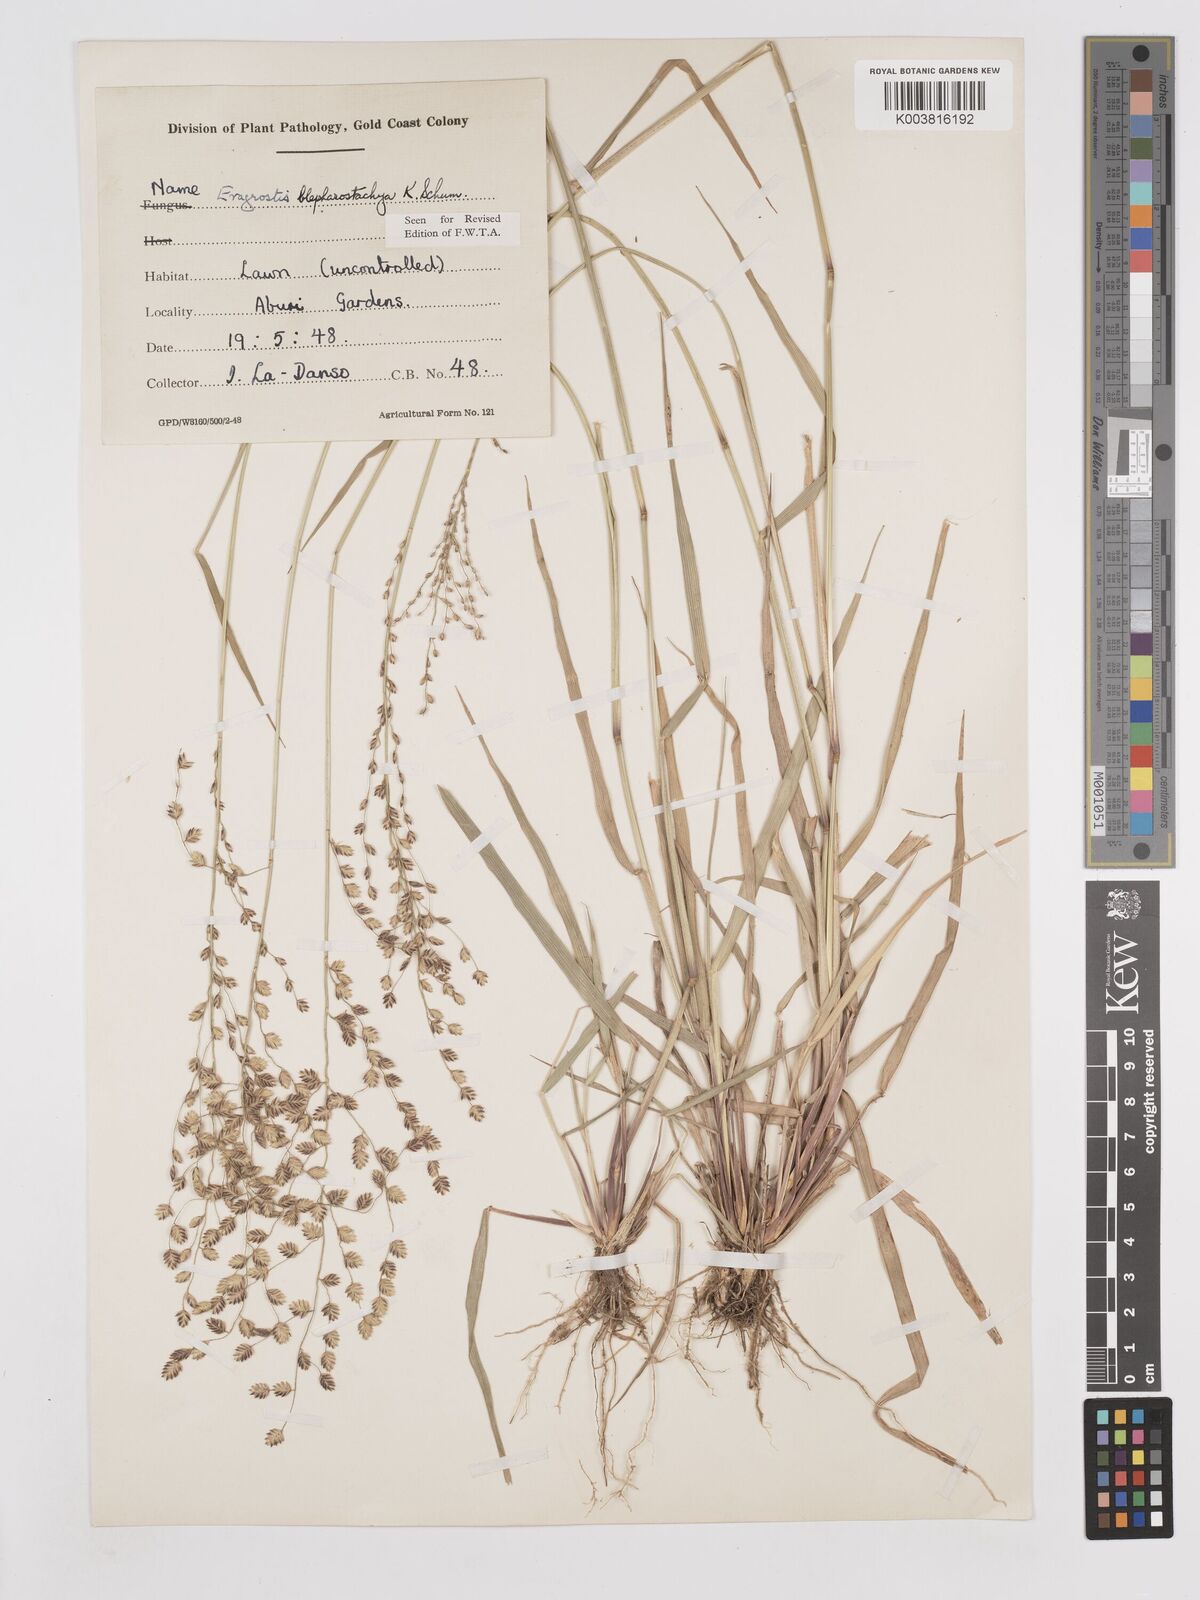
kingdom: Plantae
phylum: Tracheophyta
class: Liliopsida
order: Poales
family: Poaceae
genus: Eragrostis
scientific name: Eragrostis blepharostachya
